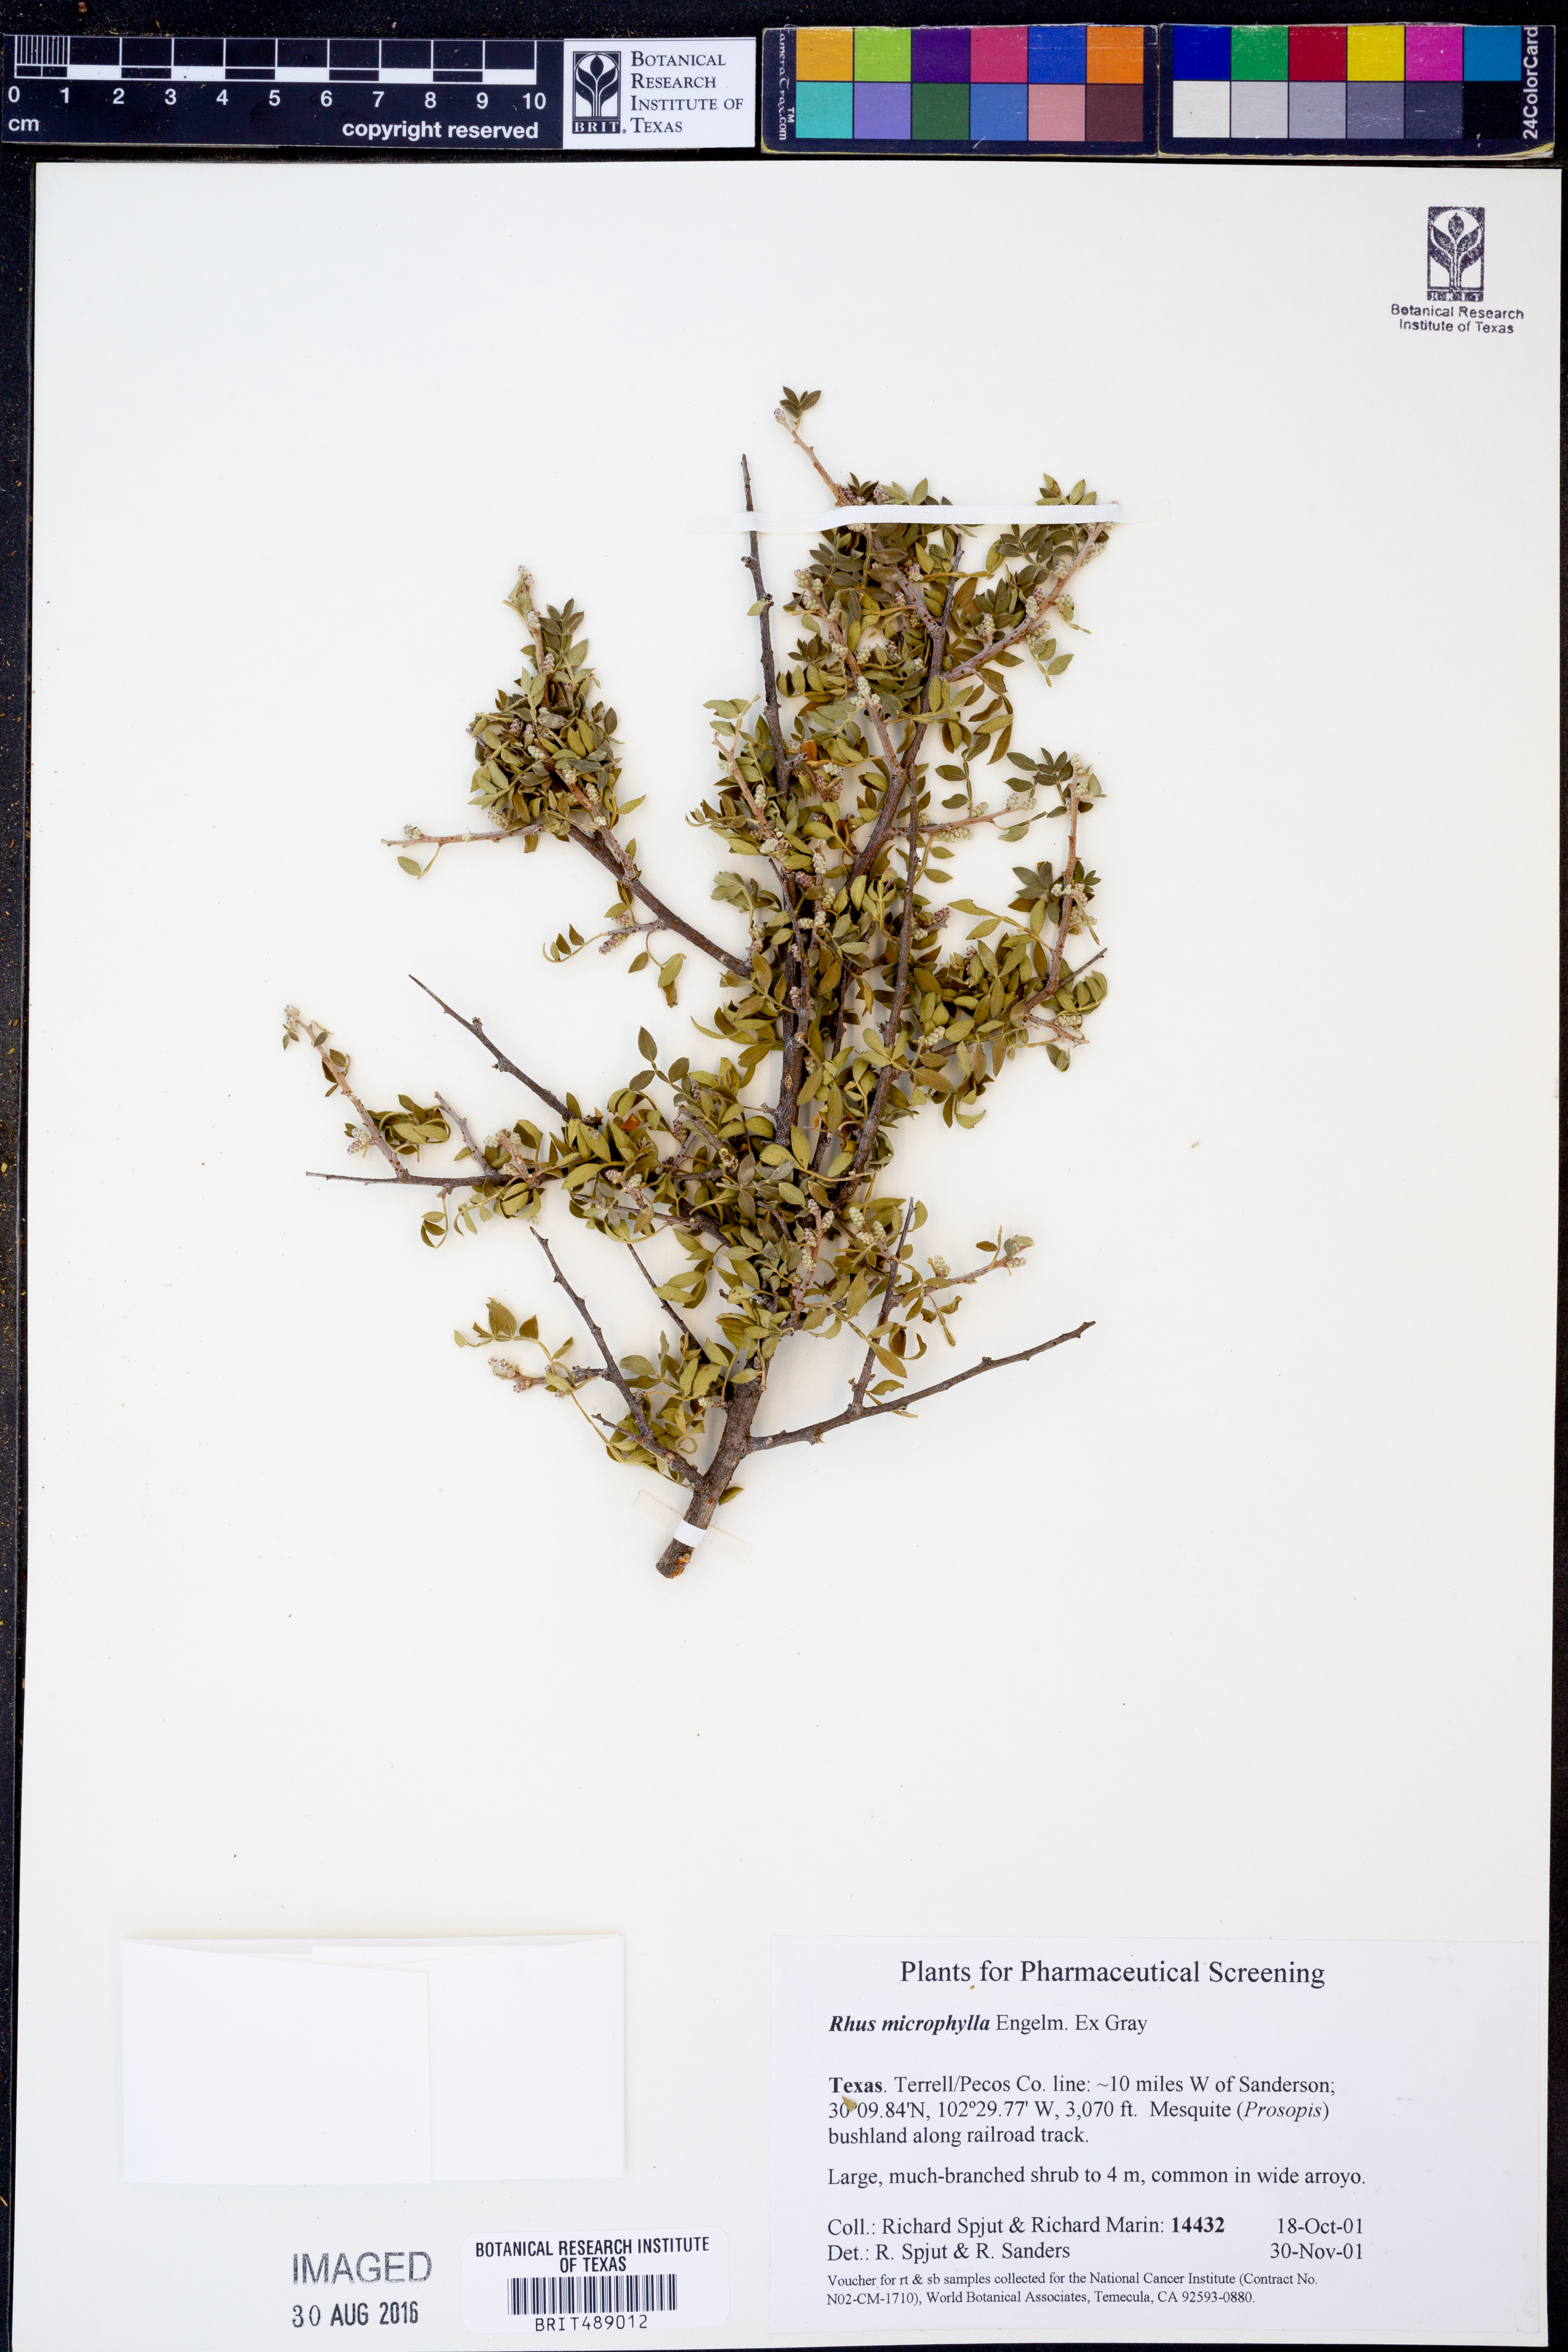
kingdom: Plantae
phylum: Tracheophyta
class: Magnoliopsida
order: Sapindales
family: Anacardiaceae
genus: Rhus
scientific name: Rhus microphylla
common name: Desert sumac
